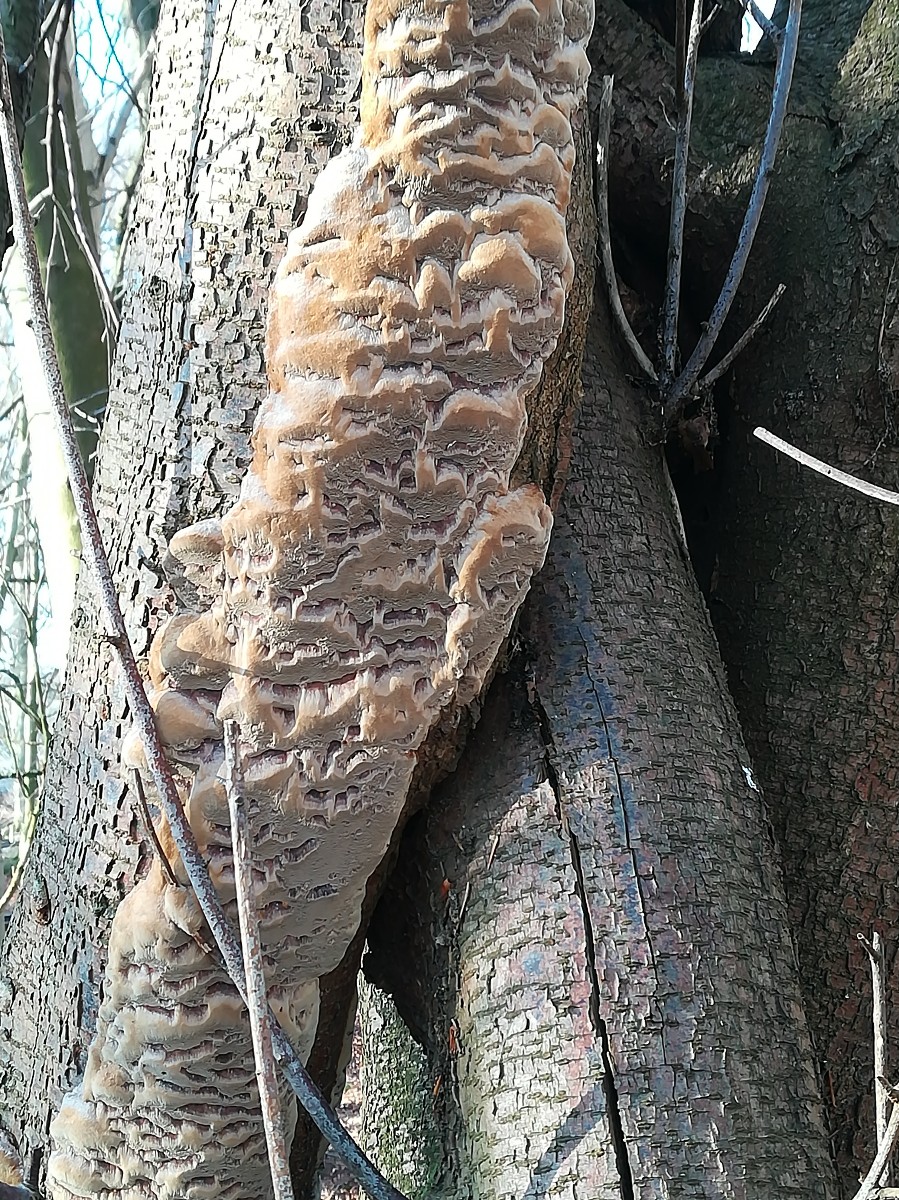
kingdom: Fungi
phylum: Basidiomycota
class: Agaricomycetes
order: Hymenochaetales
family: Hymenochaetaceae
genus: Phellinus
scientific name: Phellinus pomaceus
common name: blomme-ildporesvamp
